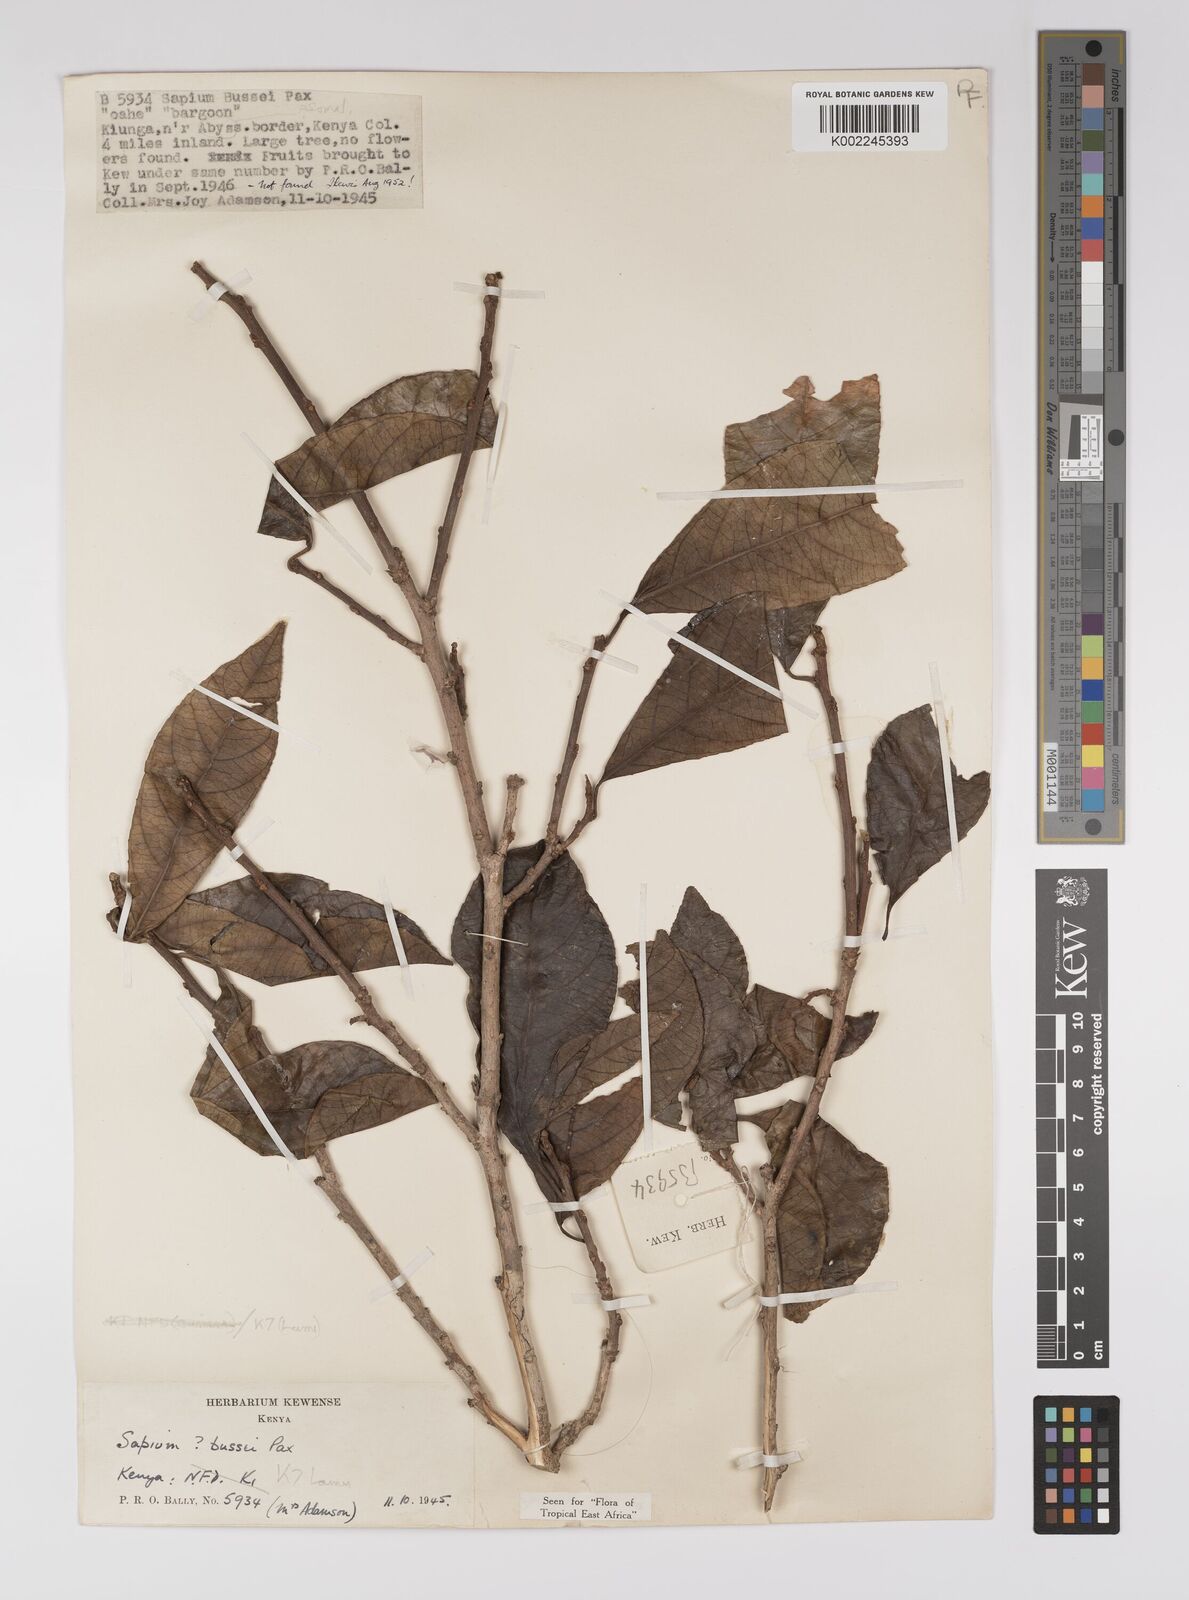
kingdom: Plantae
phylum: Tracheophyta
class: Magnoliopsida
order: Malpighiales
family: Euphorbiaceae
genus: Excoecaria
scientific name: Excoecaria bussei
